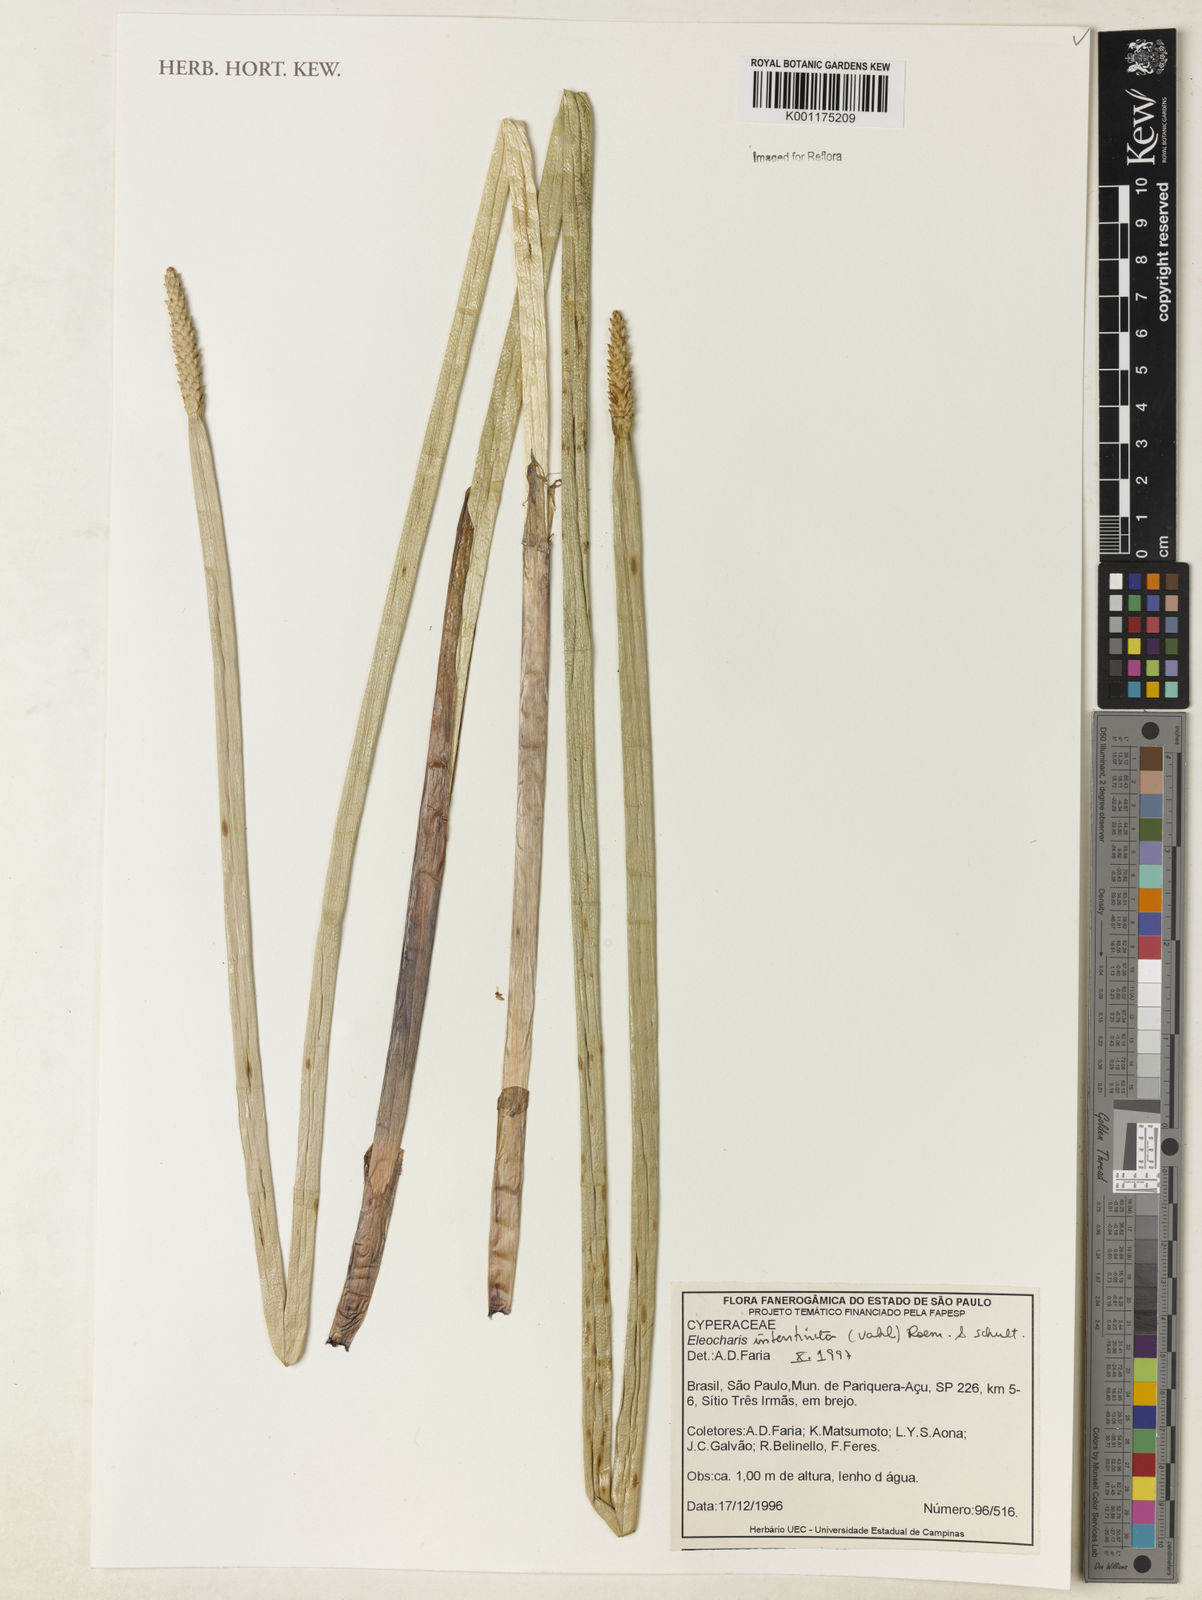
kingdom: Plantae
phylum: Tracheophyta
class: Liliopsida
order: Poales
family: Cyperaceae
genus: Eleocharis
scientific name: Eleocharis interstincta
